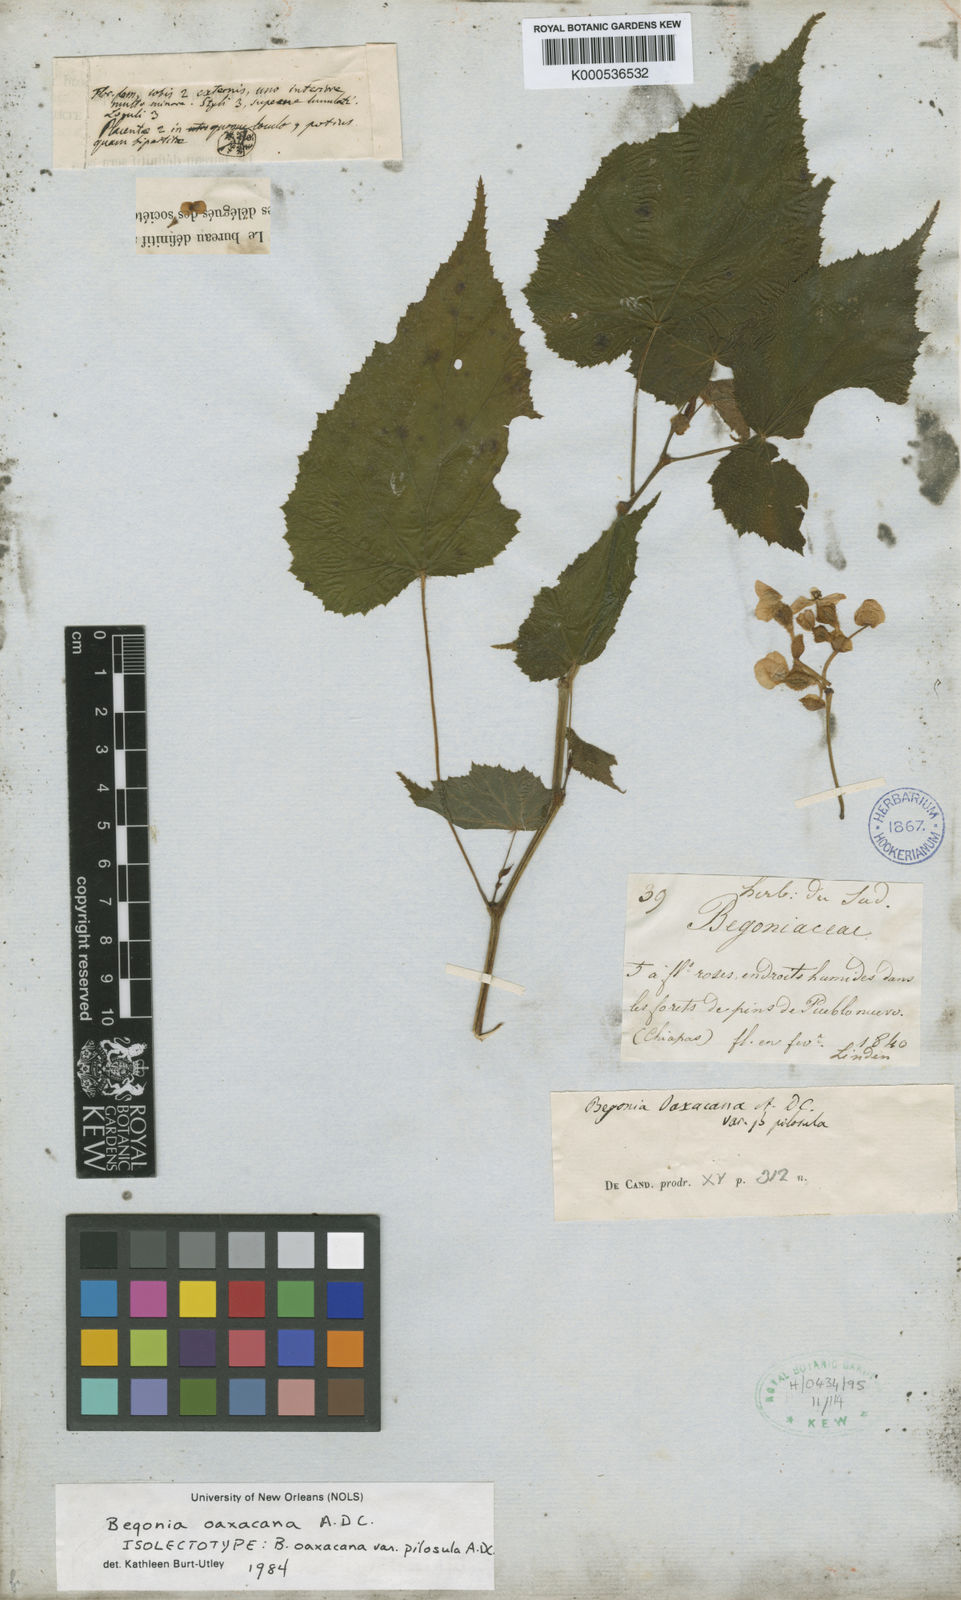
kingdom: Plantae
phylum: Tracheophyta
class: Magnoliopsida
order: Cucurbitales
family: Begoniaceae
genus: Begonia
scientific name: Begonia oaxacana
